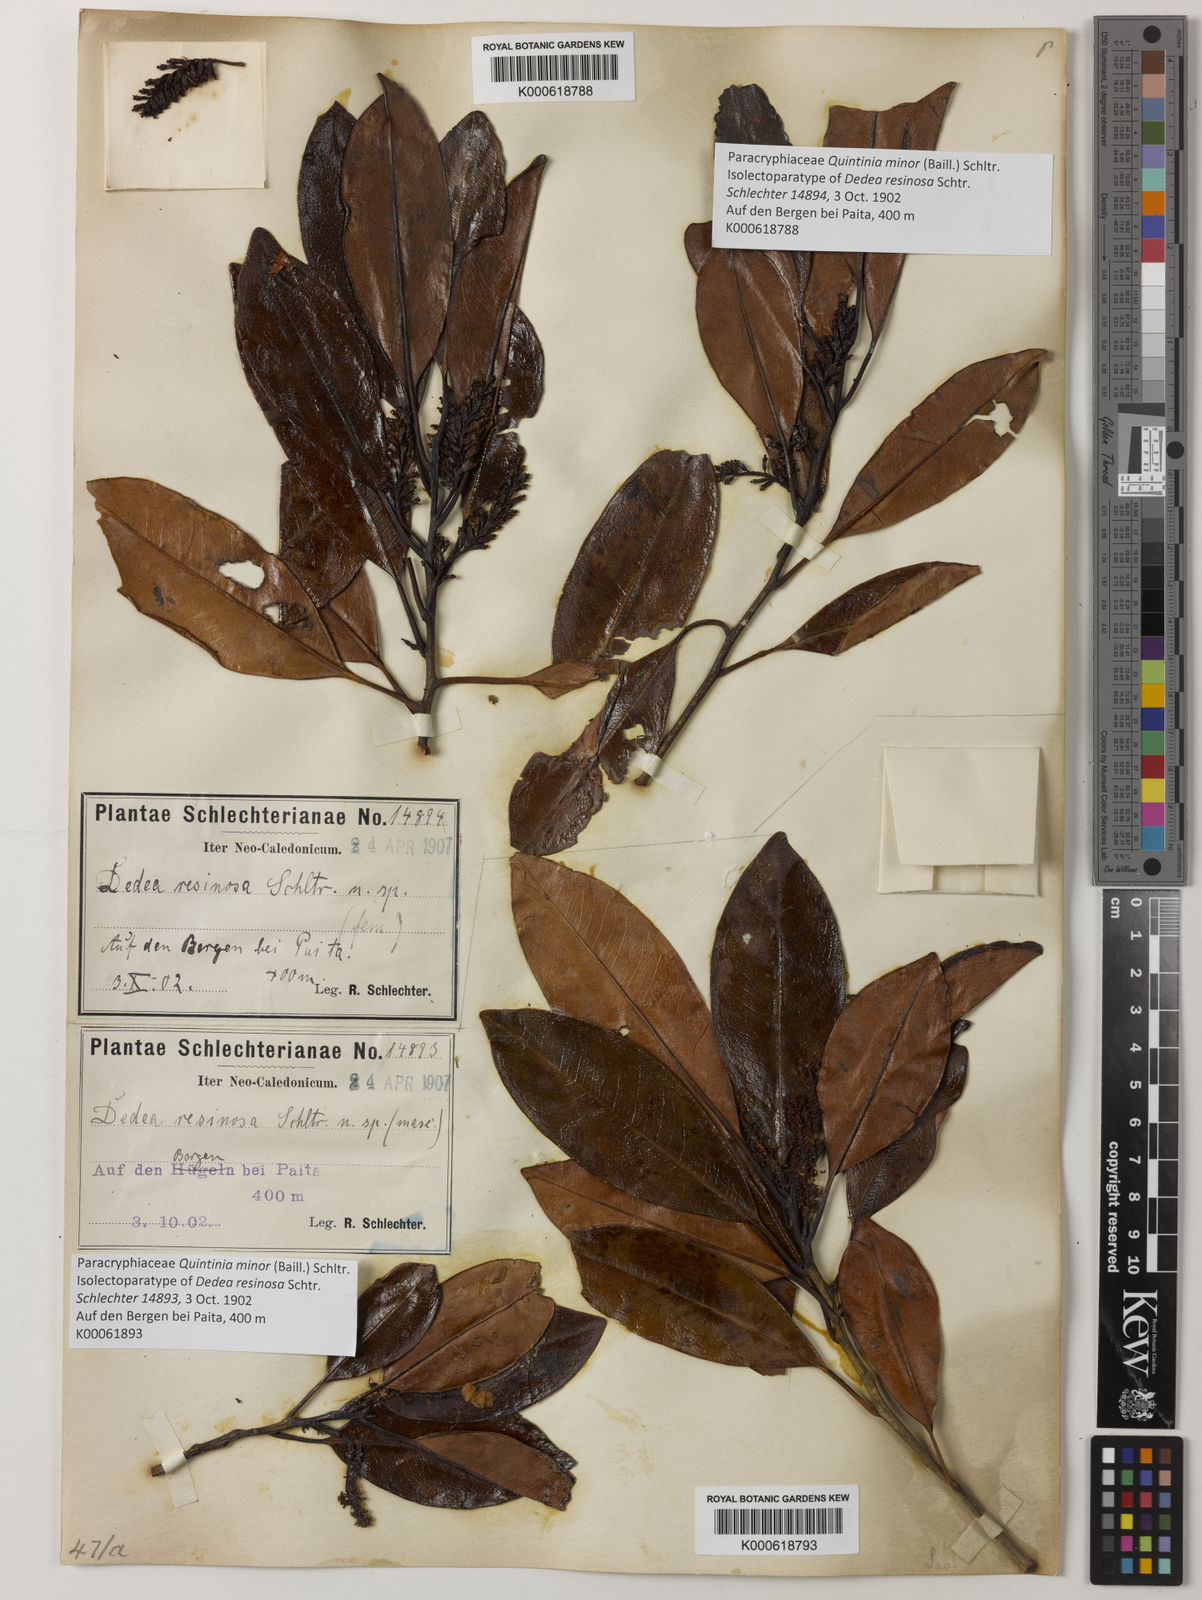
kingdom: Plantae
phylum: Tracheophyta
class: Magnoliopsida
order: Paracryphiales
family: Paracryphiaceae
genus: Quintinia
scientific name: Quintinia minor
